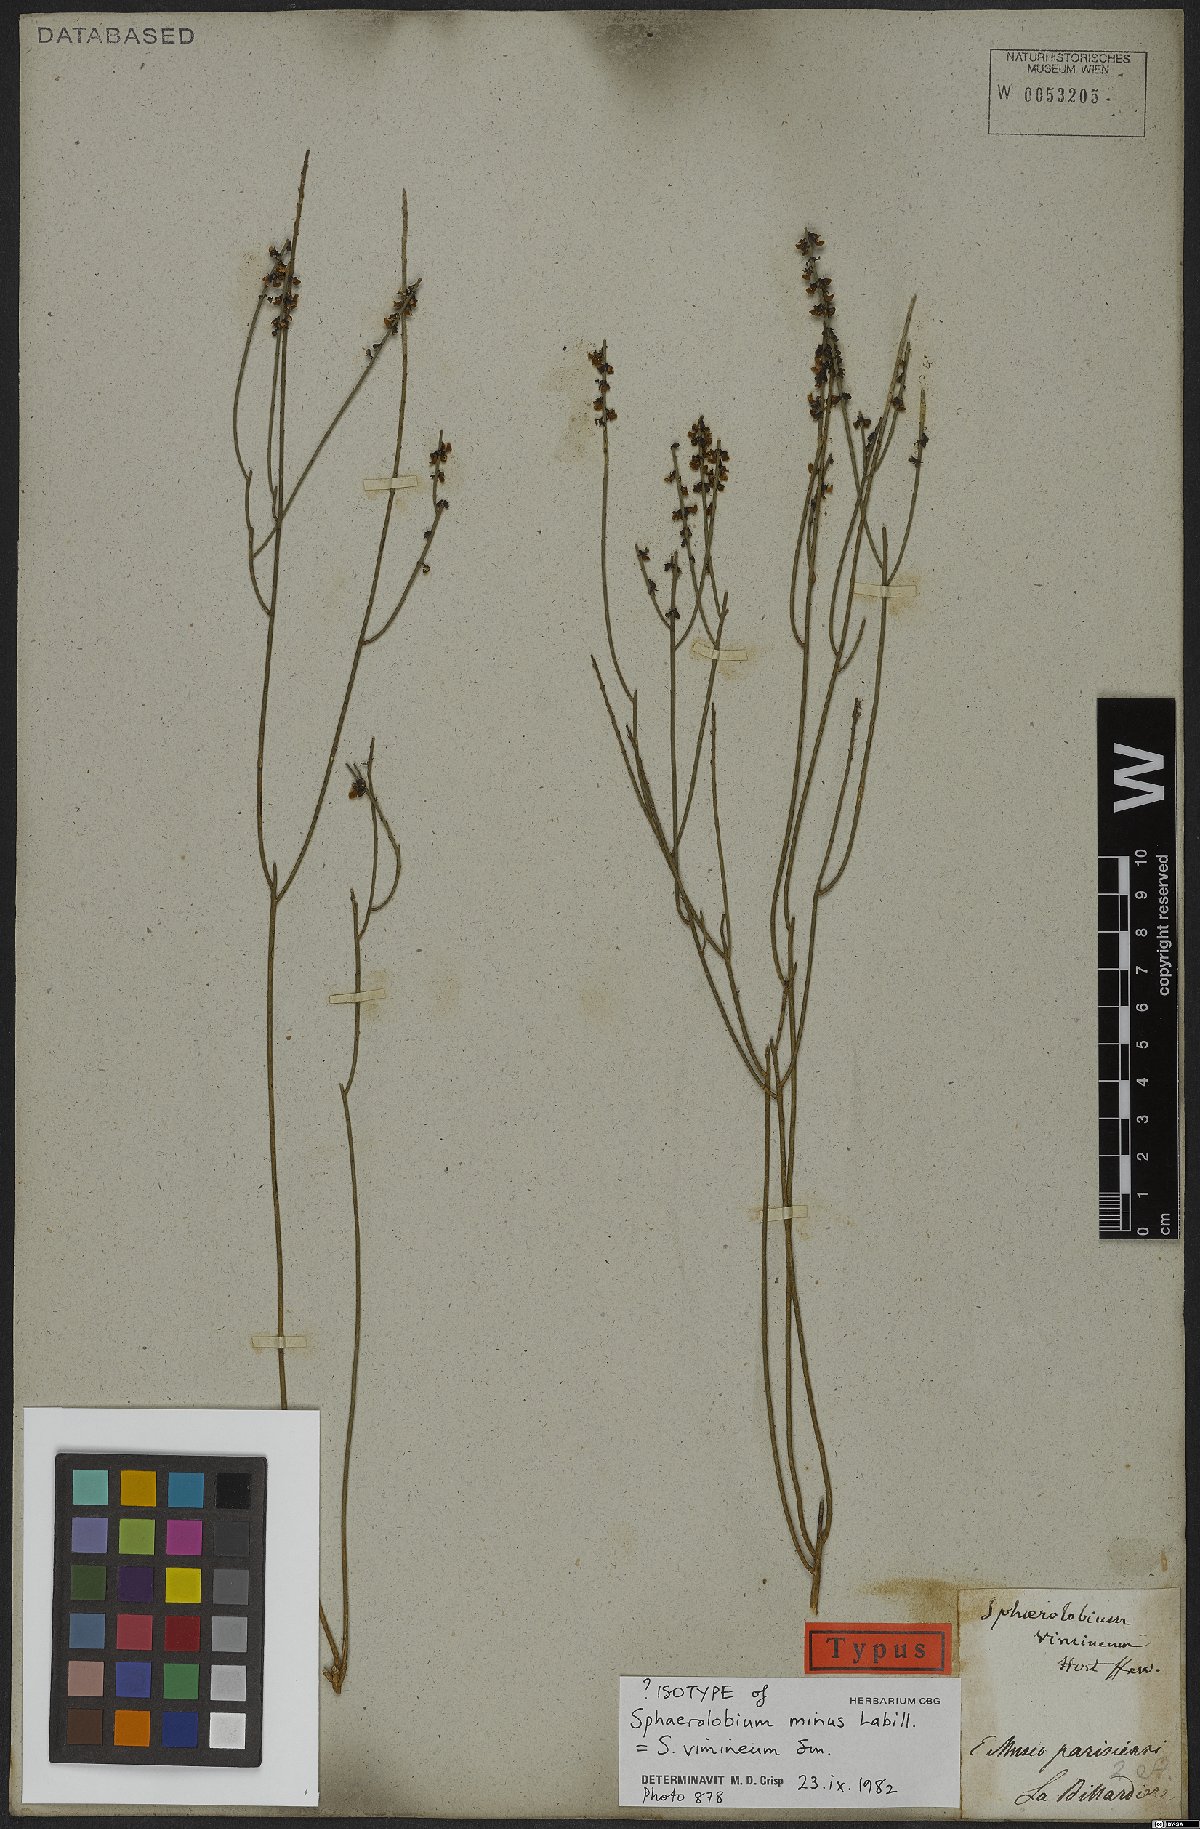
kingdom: Plantae
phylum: Tracheophyta
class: Magnoliopsida
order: Fabales
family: Fabaceae
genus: Sphaerolobium
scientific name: Sphaerolobium vimineum
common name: Leafless globe-pea
